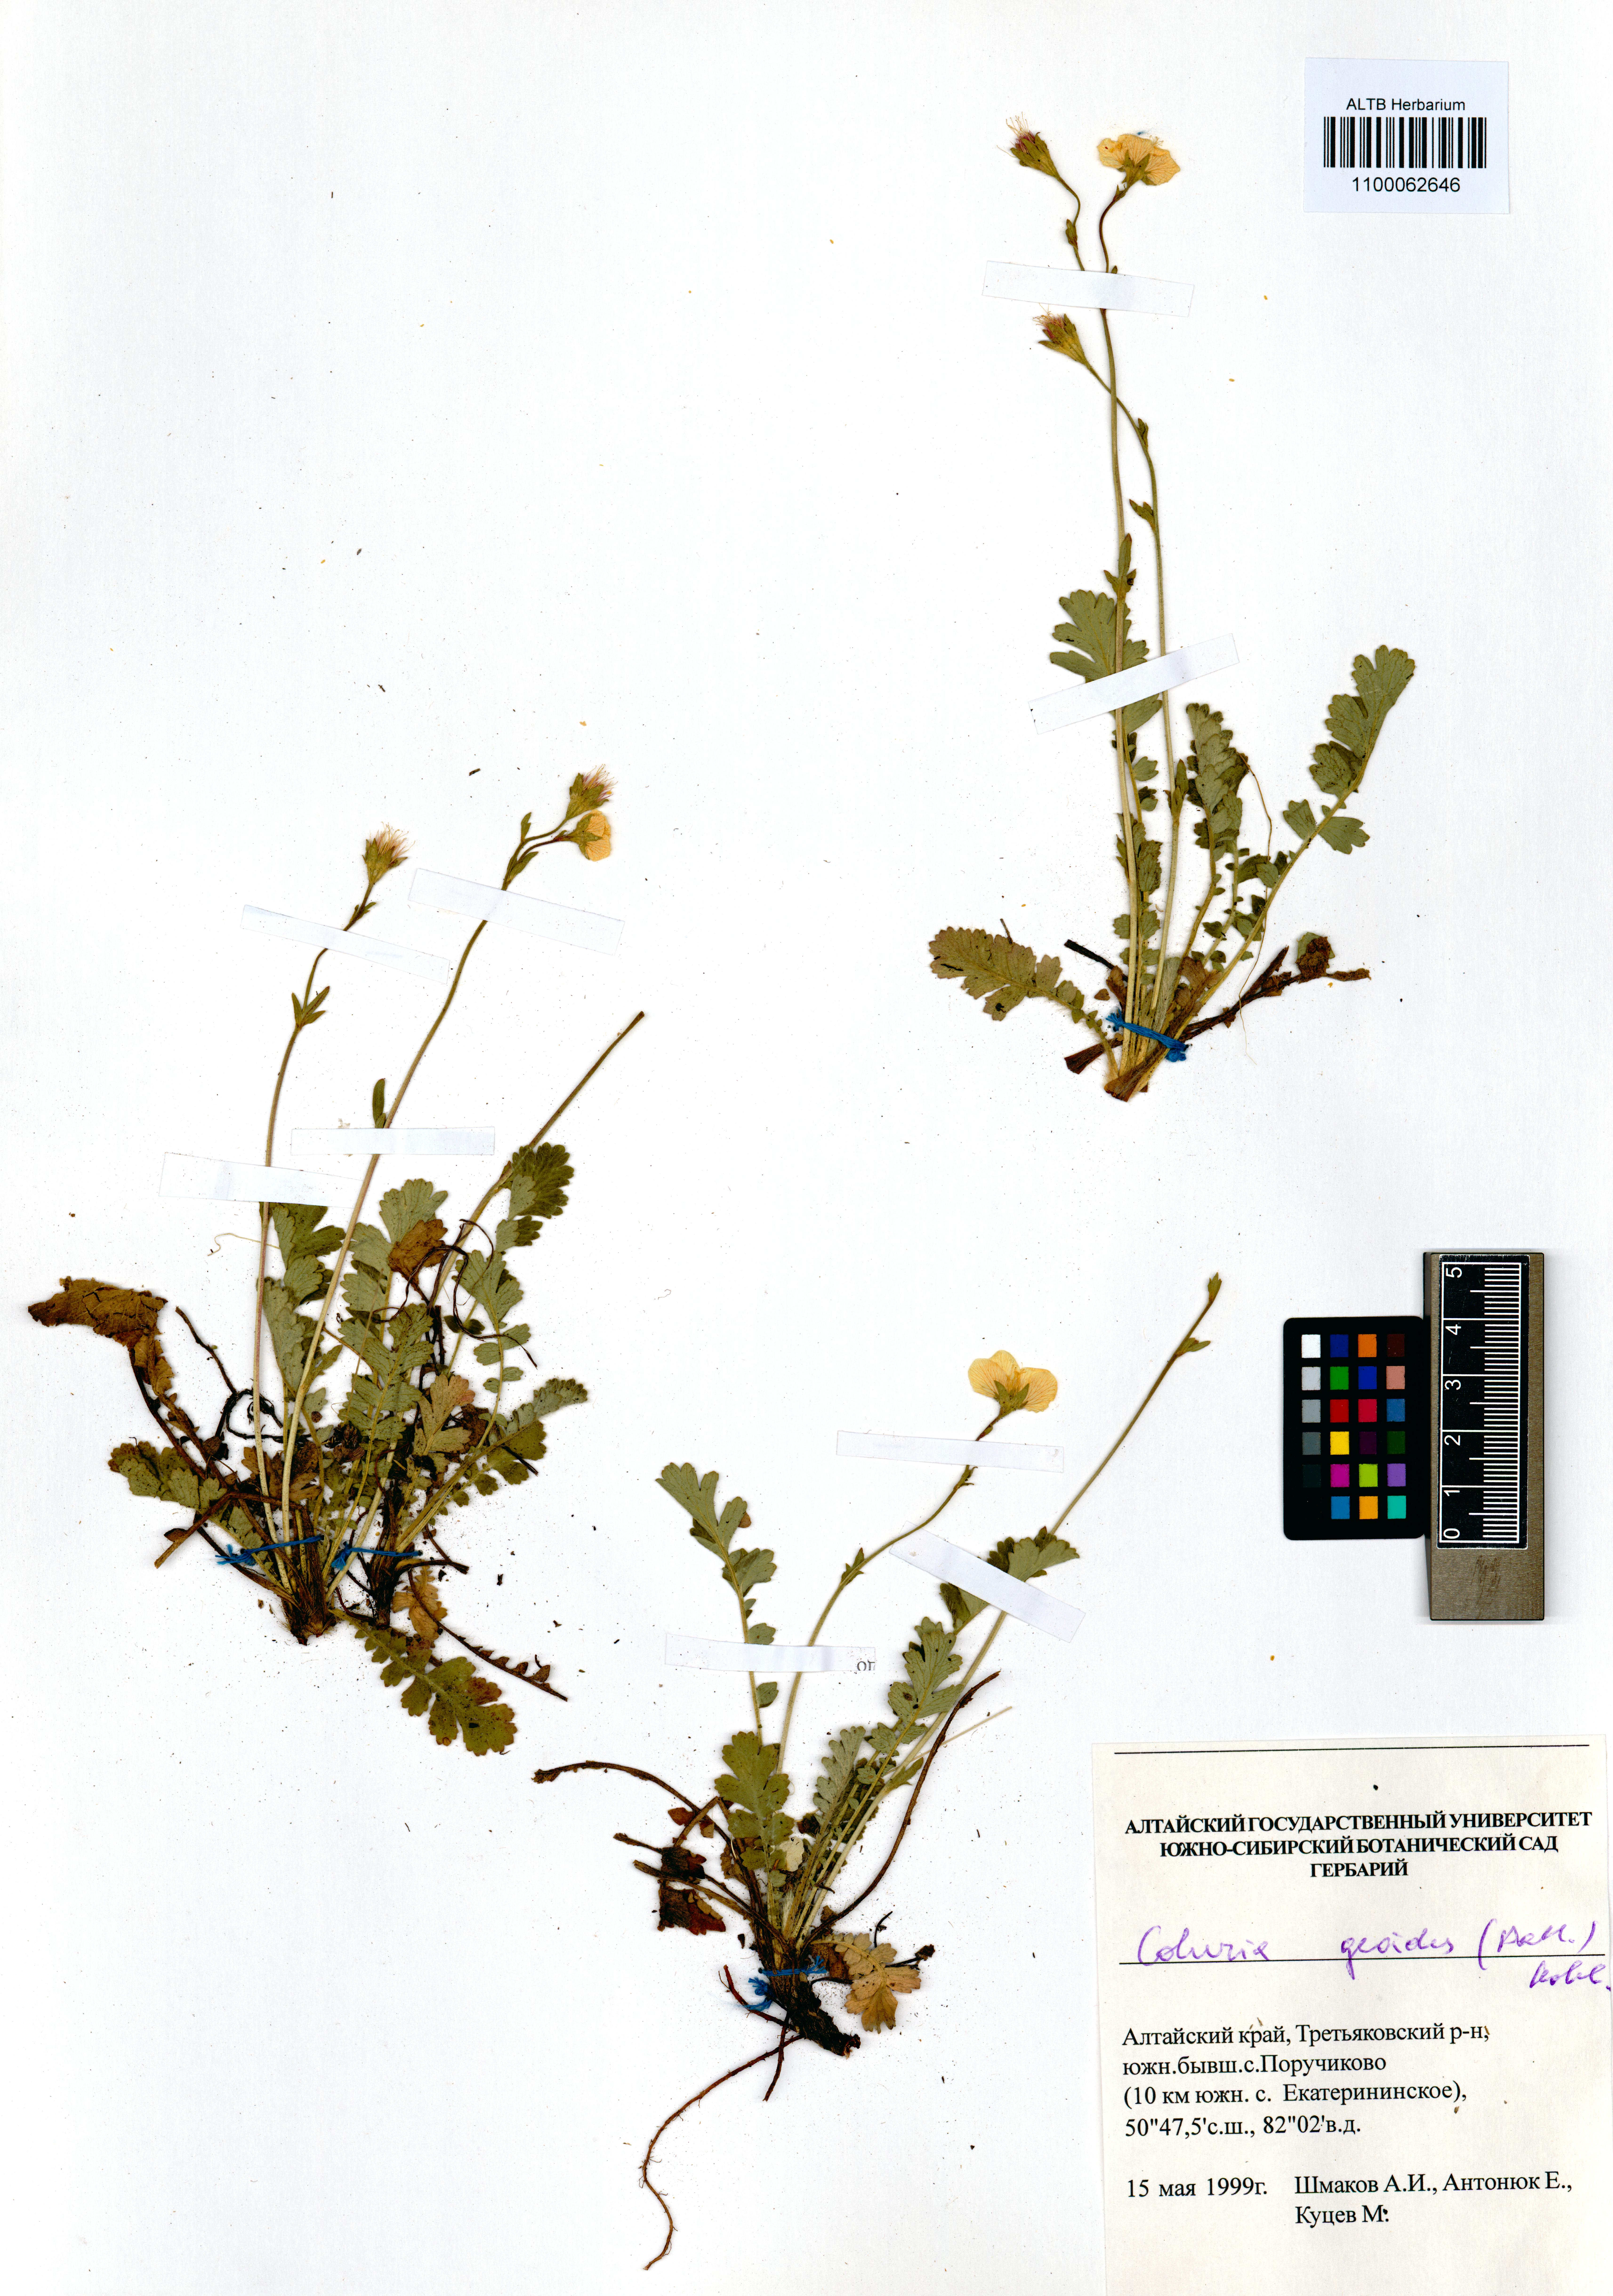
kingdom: Plantae
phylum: Tracheophyta
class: Magnoliopsida
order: Rosales
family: Rosaceae
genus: Geum
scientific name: Geum geoides
